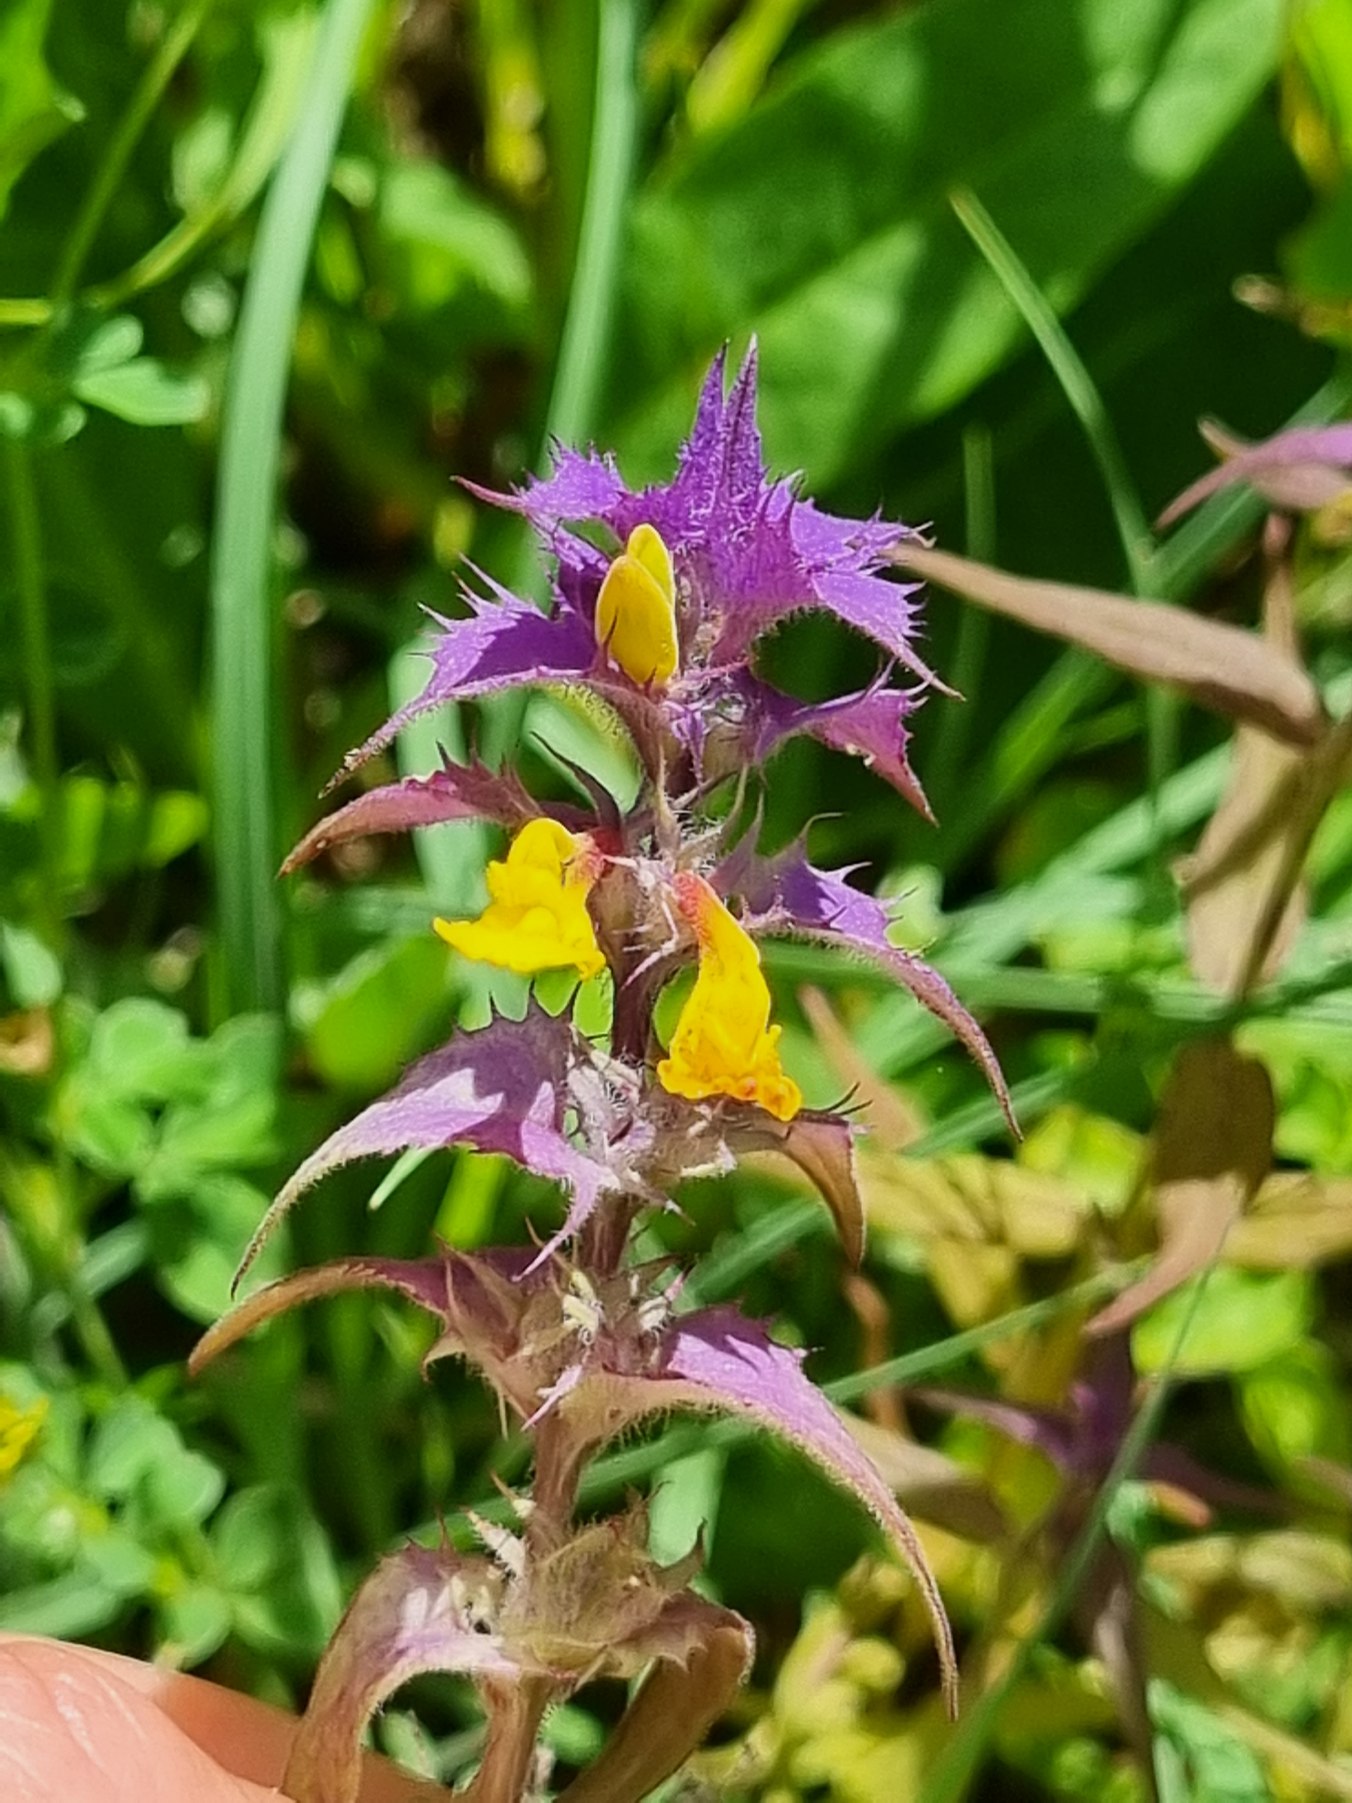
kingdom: Plantae
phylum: Tracheophyta
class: Magnoliopsida
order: Lamiales
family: Orobanchaceae
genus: Melampyrum
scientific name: Melampyrum nemorosum
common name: Blåtoppet kohvede
